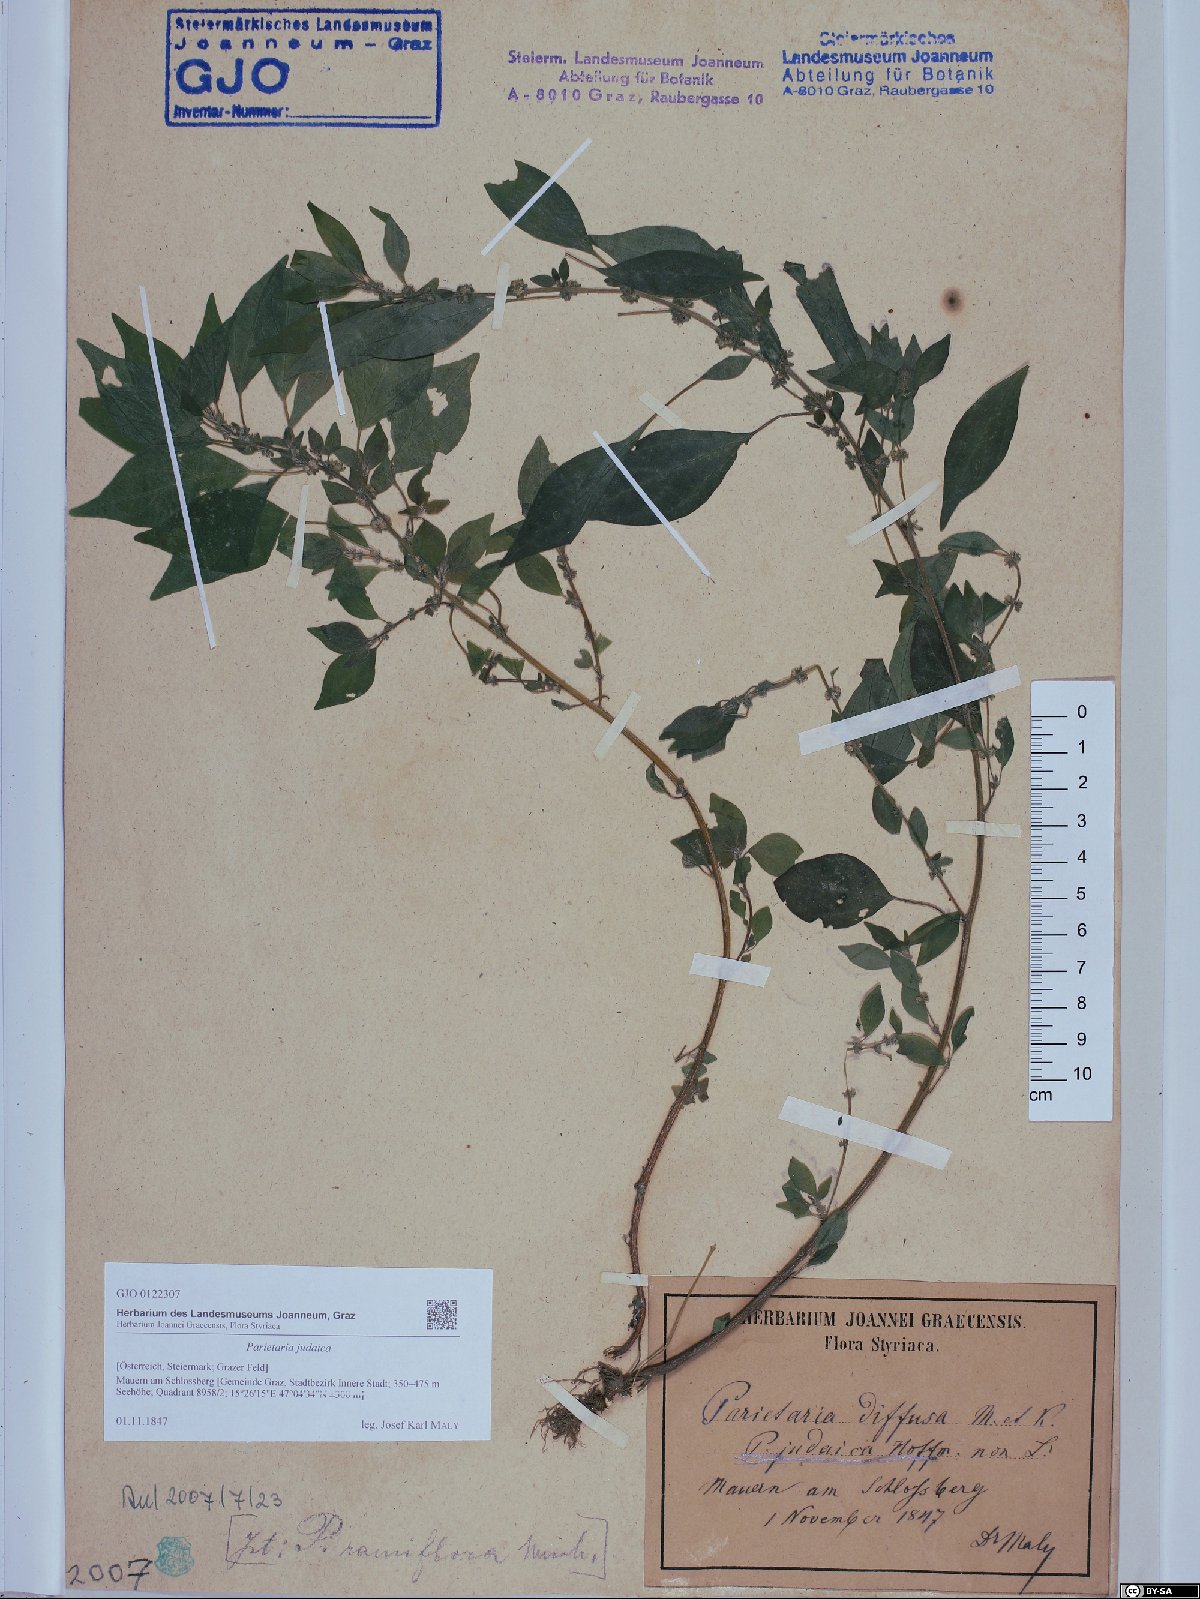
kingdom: Plantae
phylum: Tracheophyta
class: Magnoliopsida
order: Rosales
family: Urticaceae
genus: Parietaria
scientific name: Parietaria judaica
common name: Pellitory-of-the-wall
